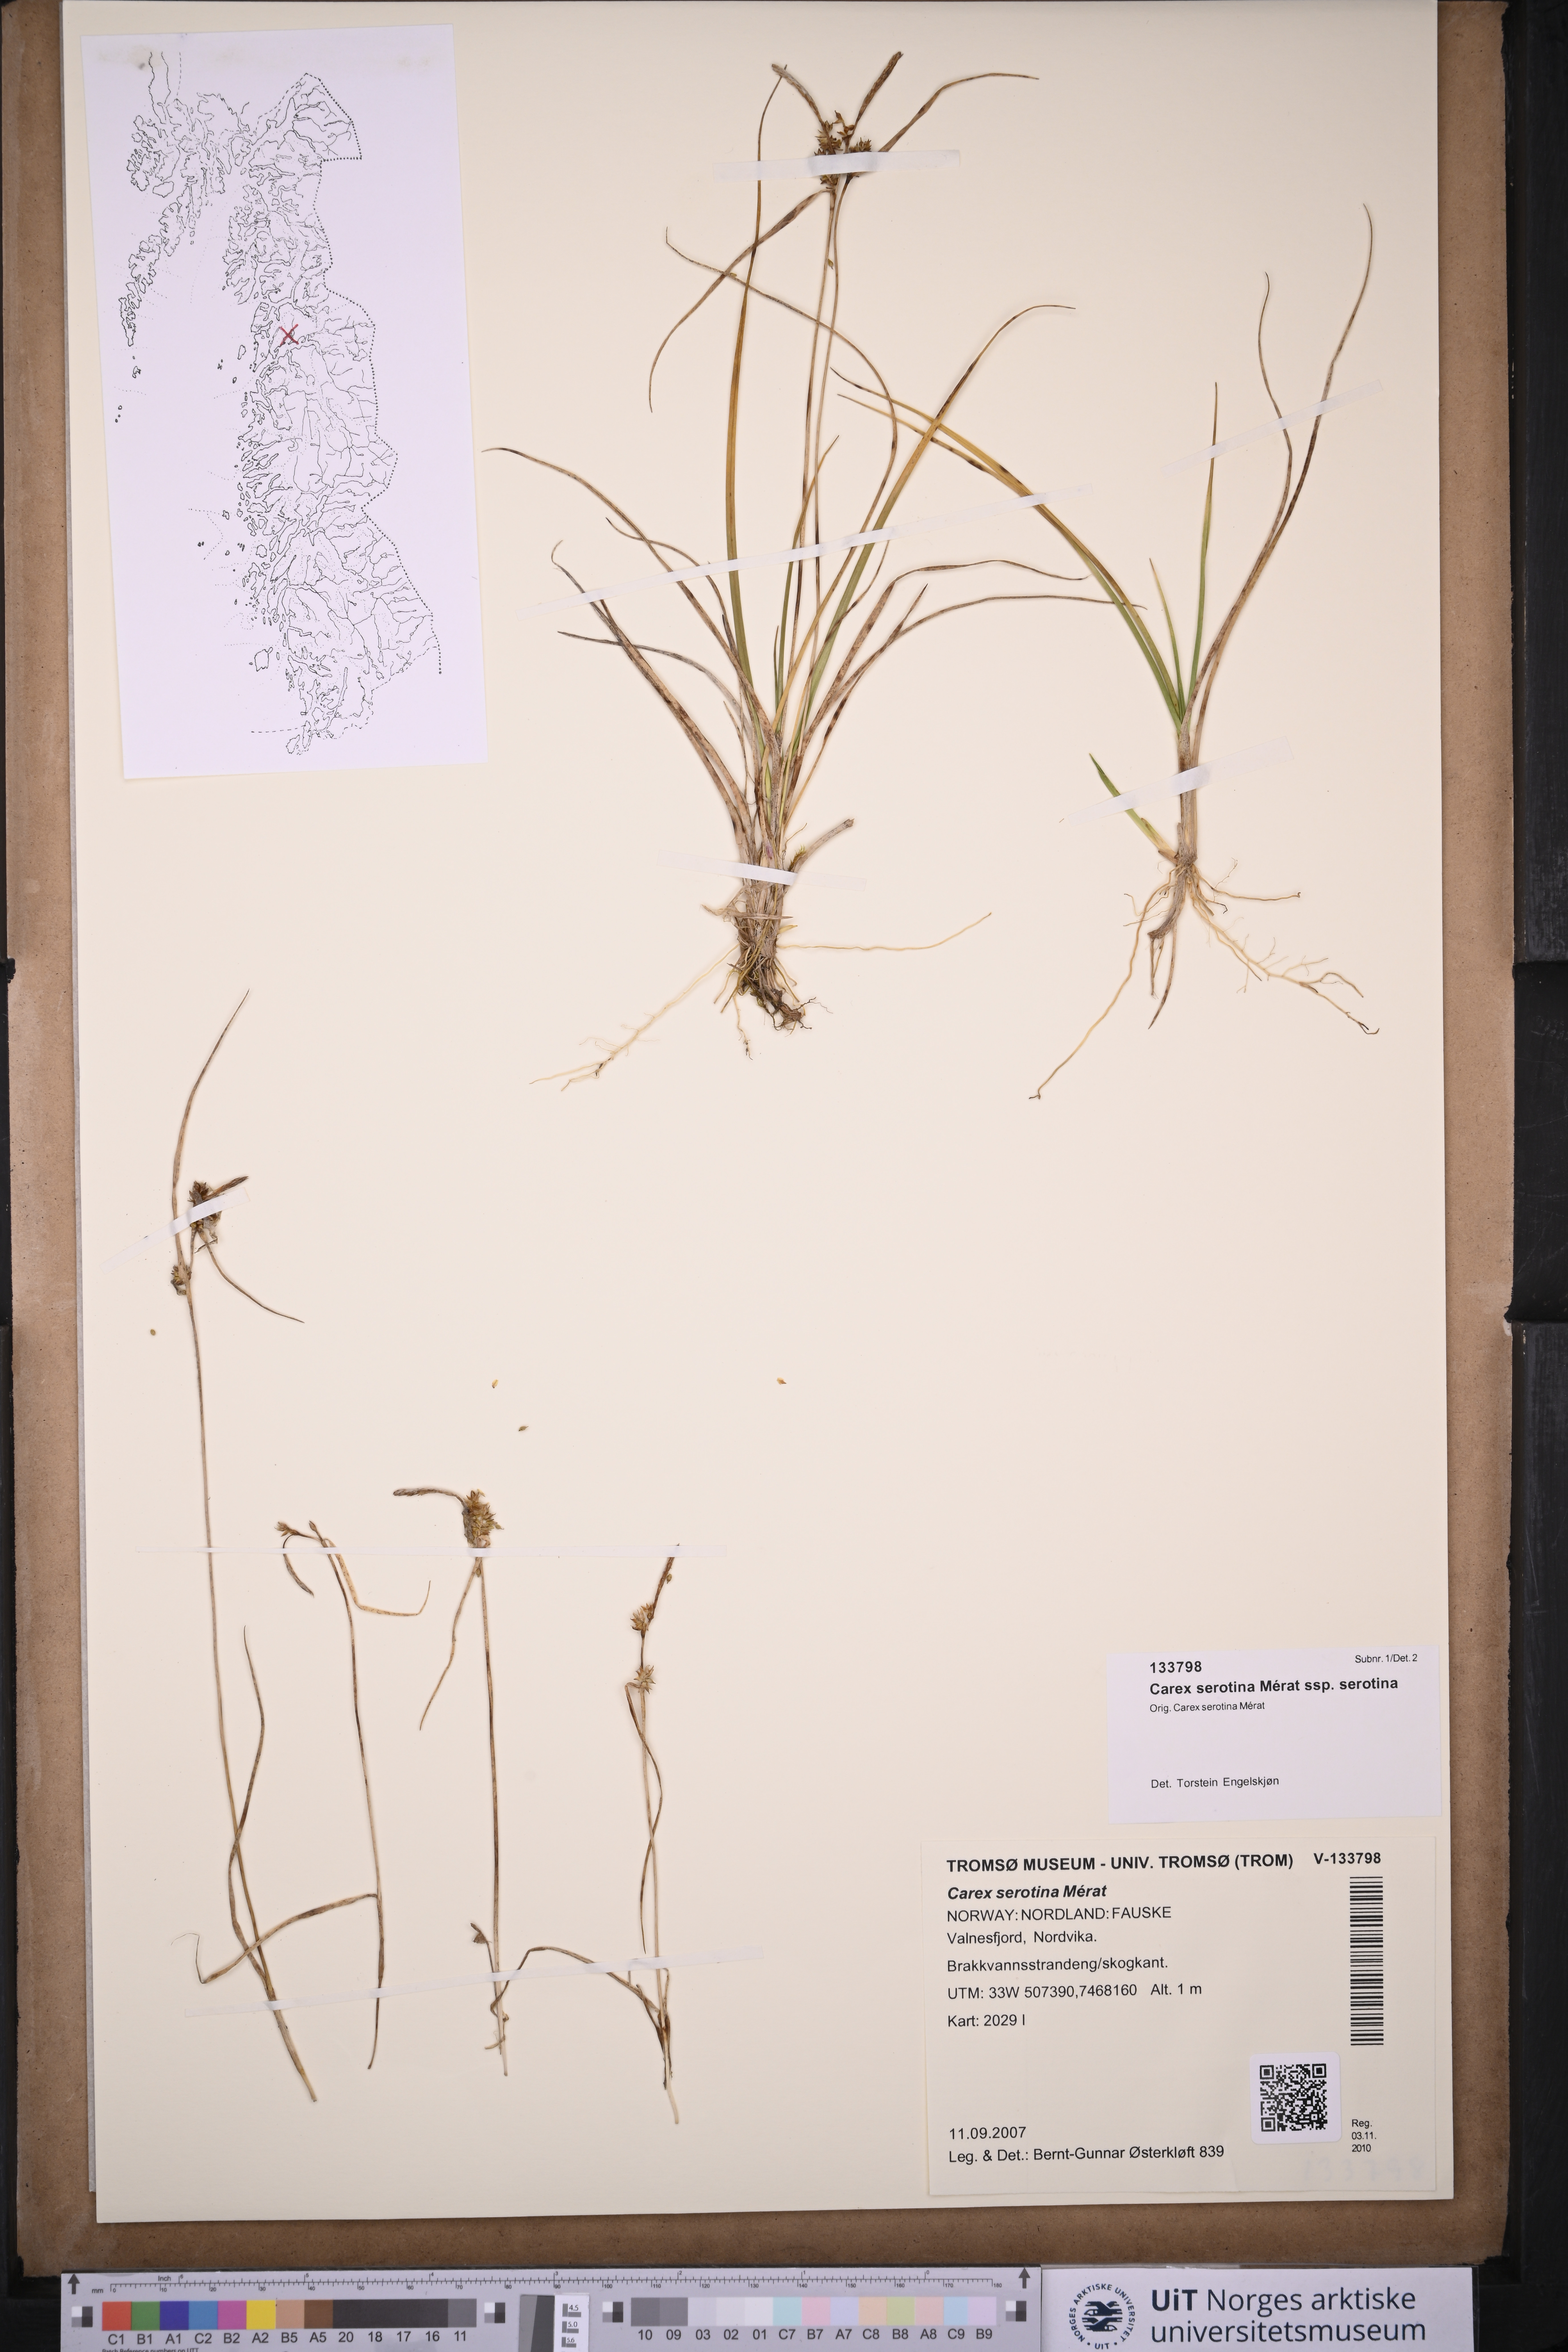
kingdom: Plantae
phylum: Tracheophyta
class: Liliopsida
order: Poales
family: Cyperaceae
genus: Carex
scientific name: Carex oederi
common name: Common & small-fruited yellow-sedge
